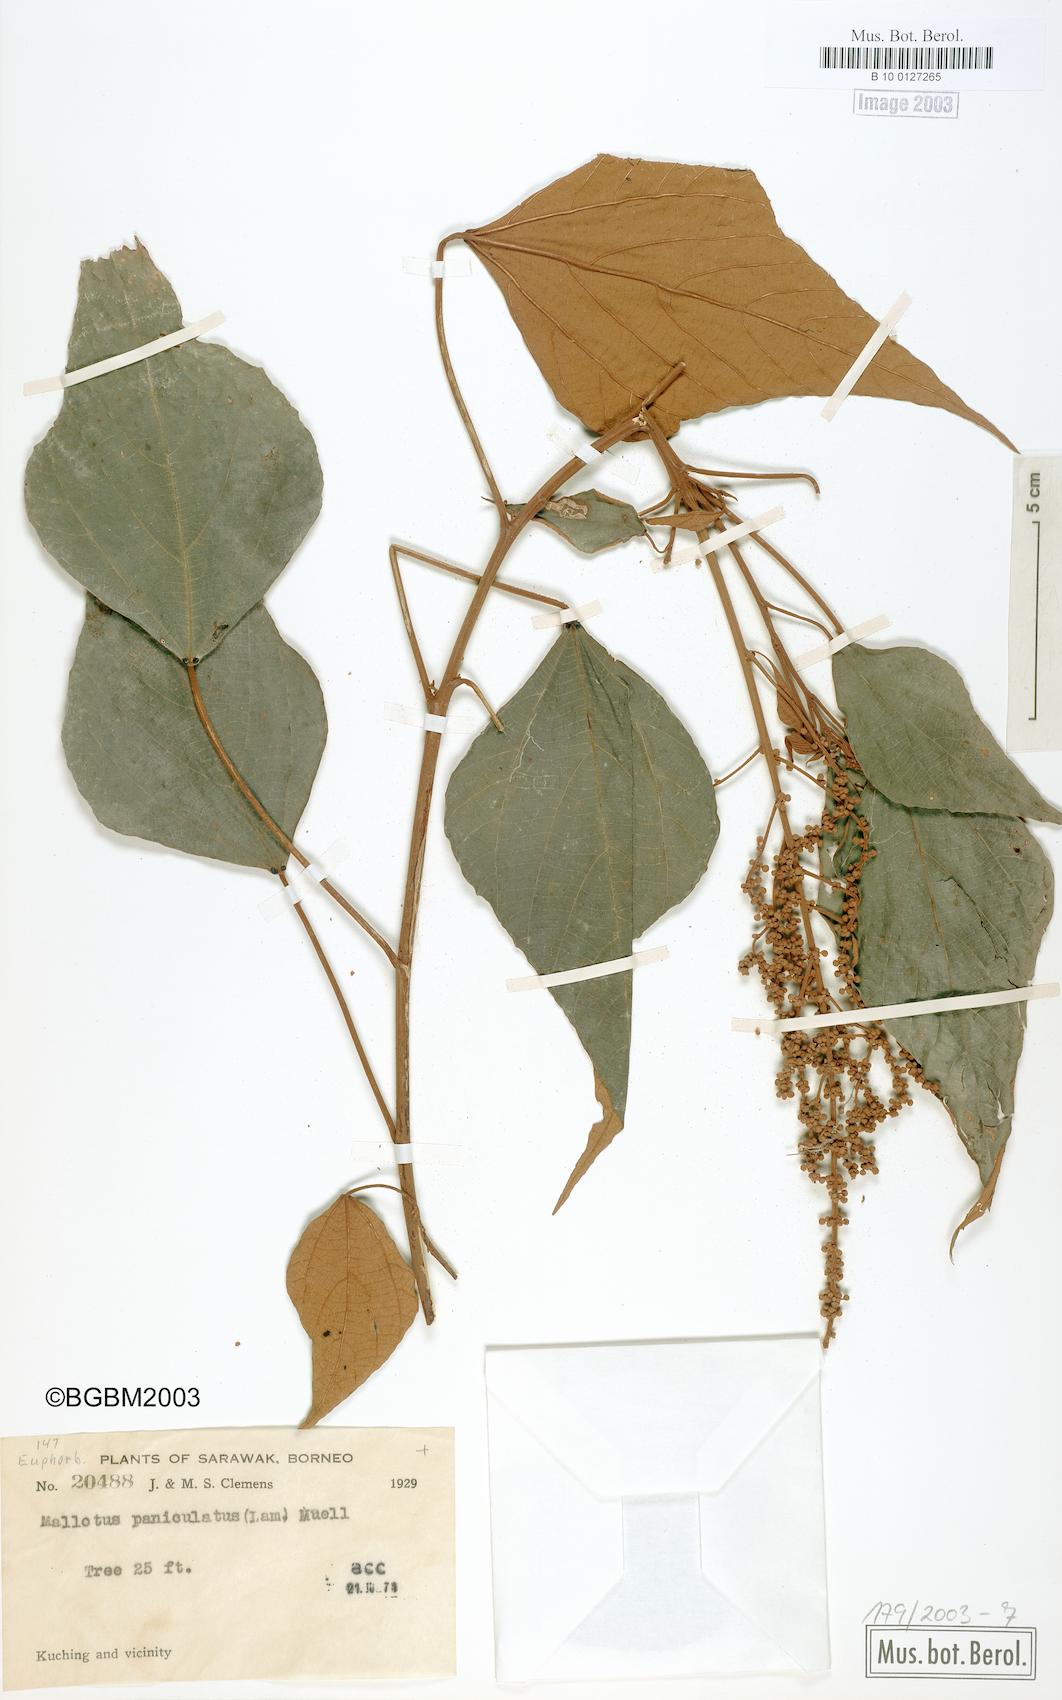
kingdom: Plantae
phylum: Tracheophyta
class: Magnoliopsida
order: Malpighiales
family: Euphorbiaceae
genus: Mallotus
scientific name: Mallotus paniculatus
